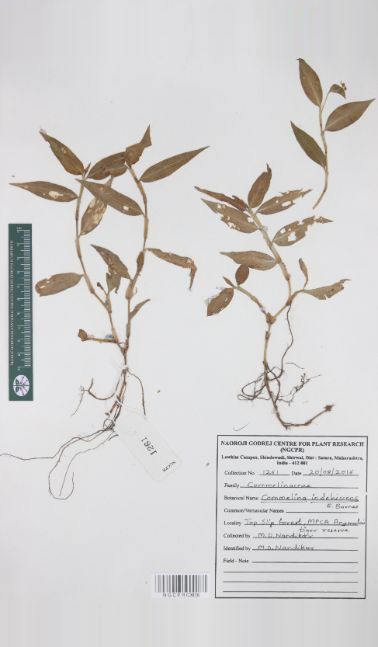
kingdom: Plantae
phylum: Tracheophyta
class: Liliopsida
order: Commelinales
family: Commelinaceae
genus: Commelina
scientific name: Commelina indehiscens
